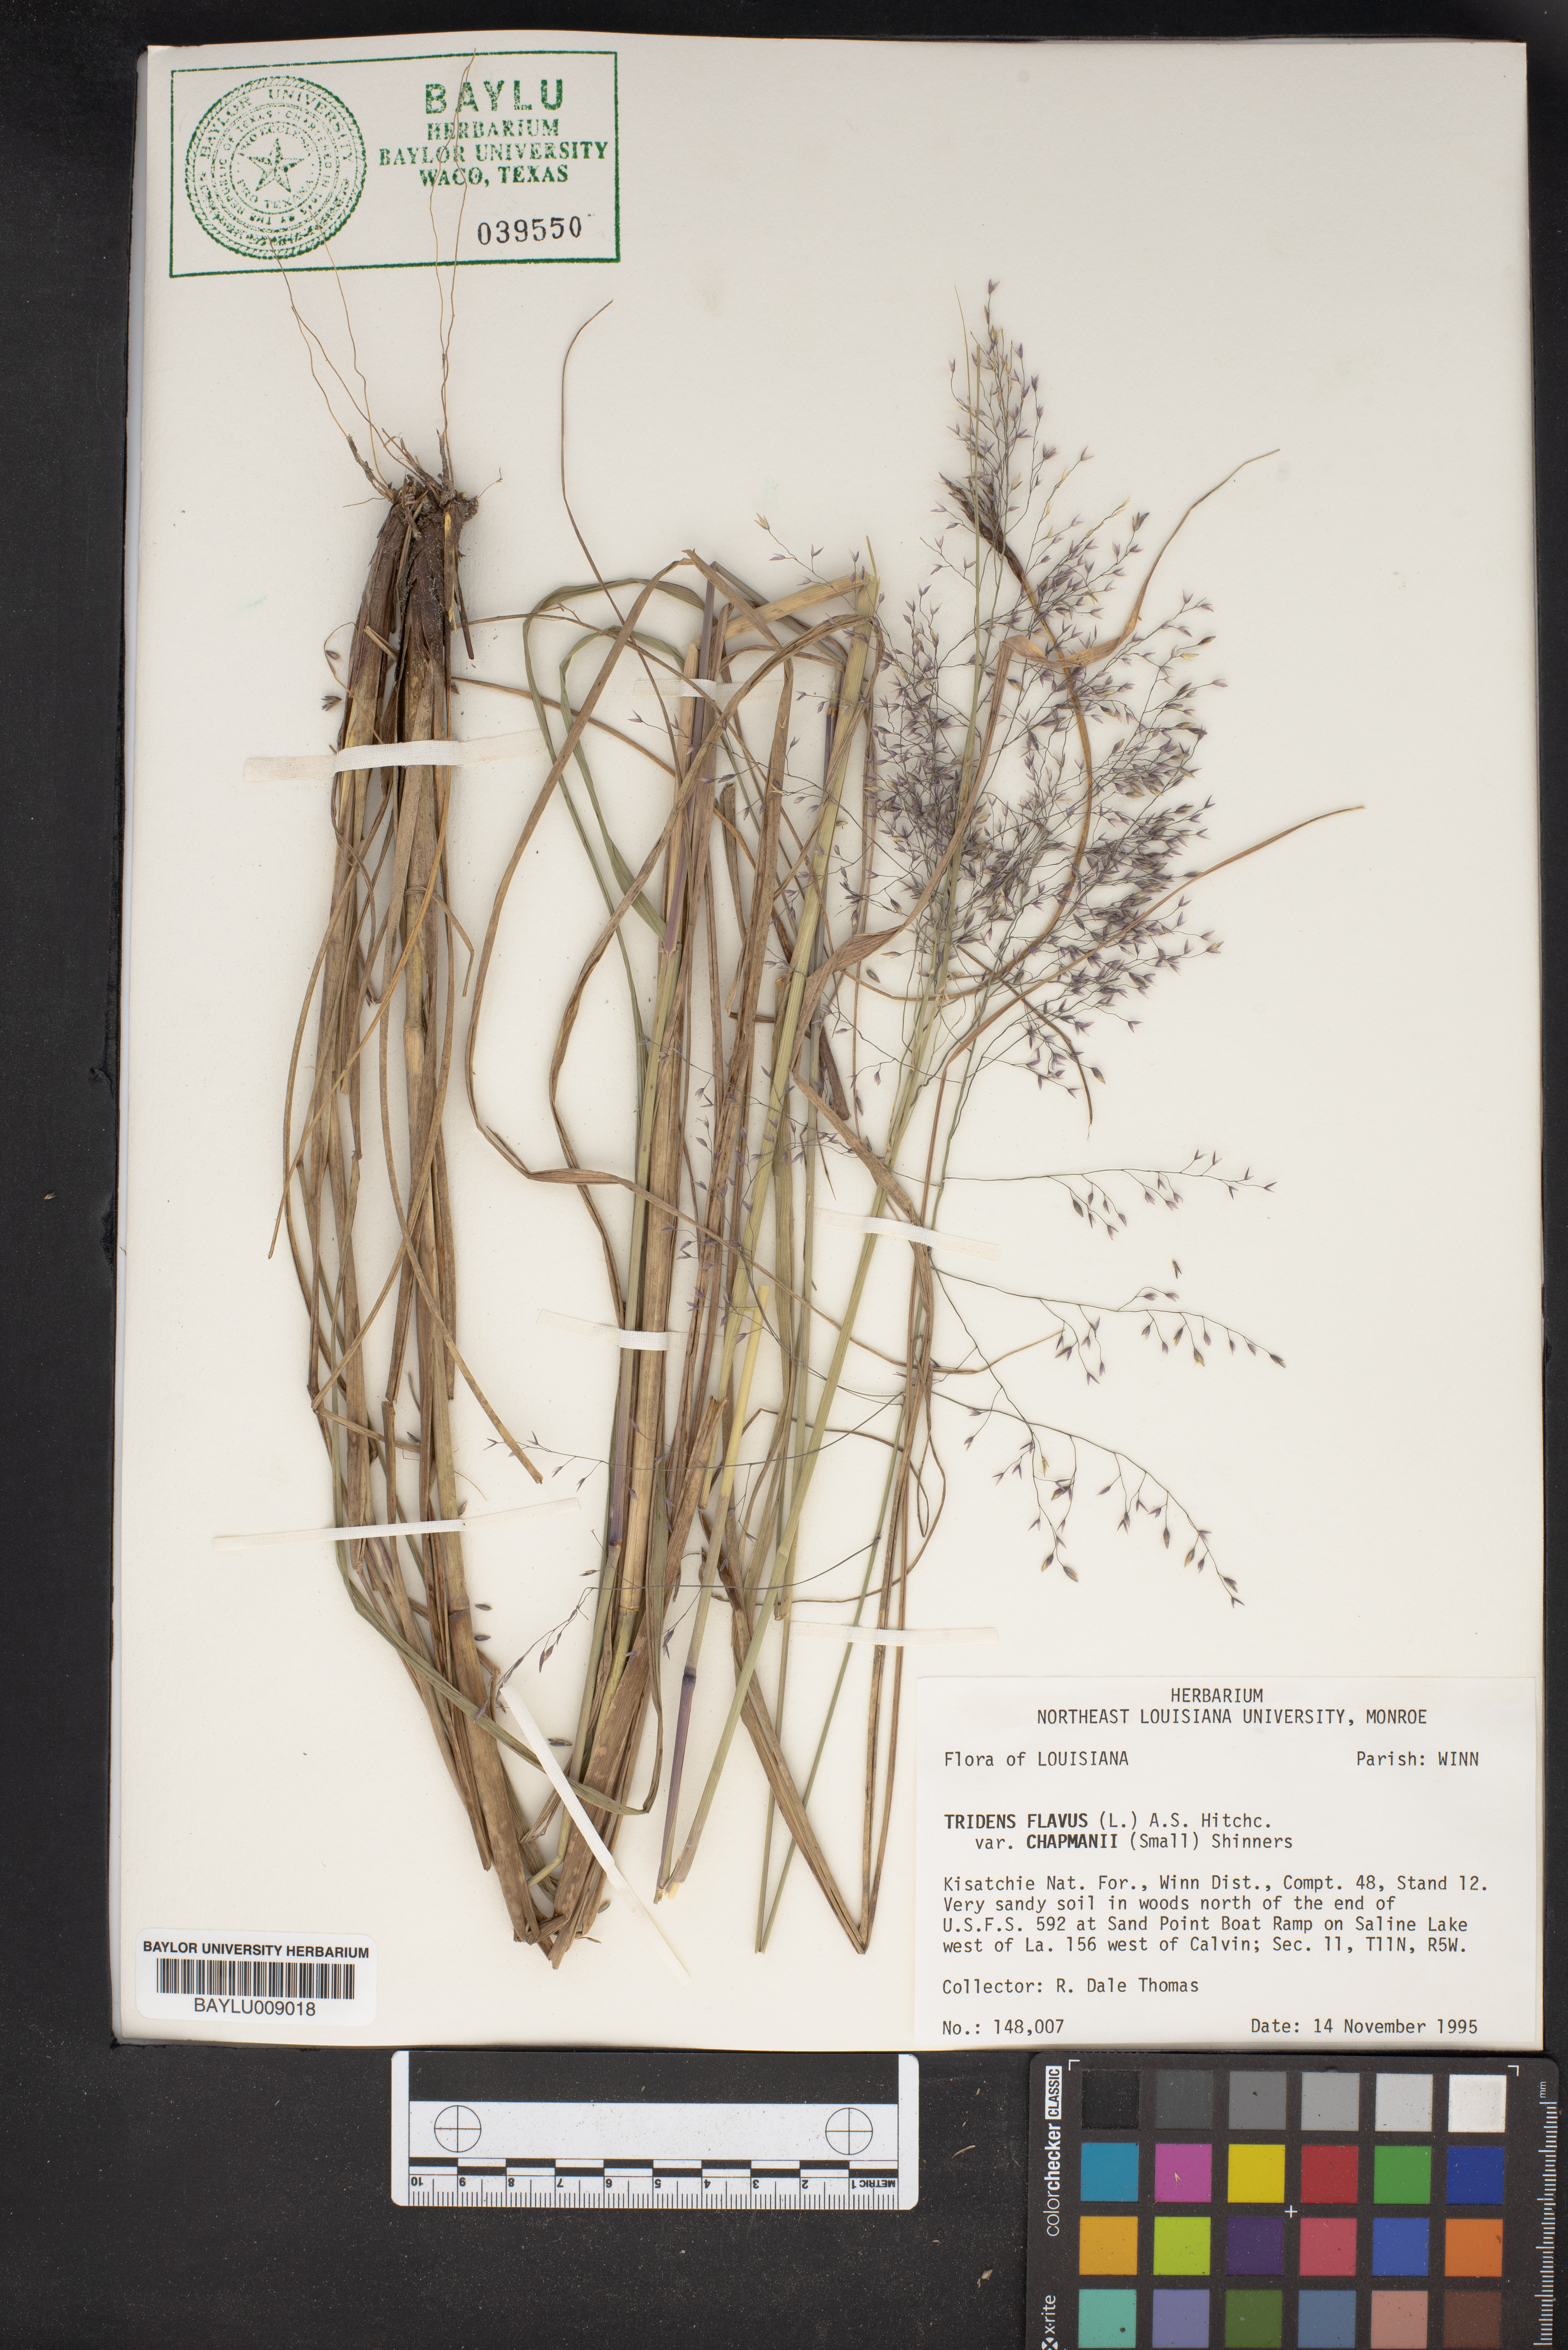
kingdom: Plantae
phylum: Tracheophyta
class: Liliopsida
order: Poales
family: Poaceae
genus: Tridens
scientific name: Tridens chapmanii
